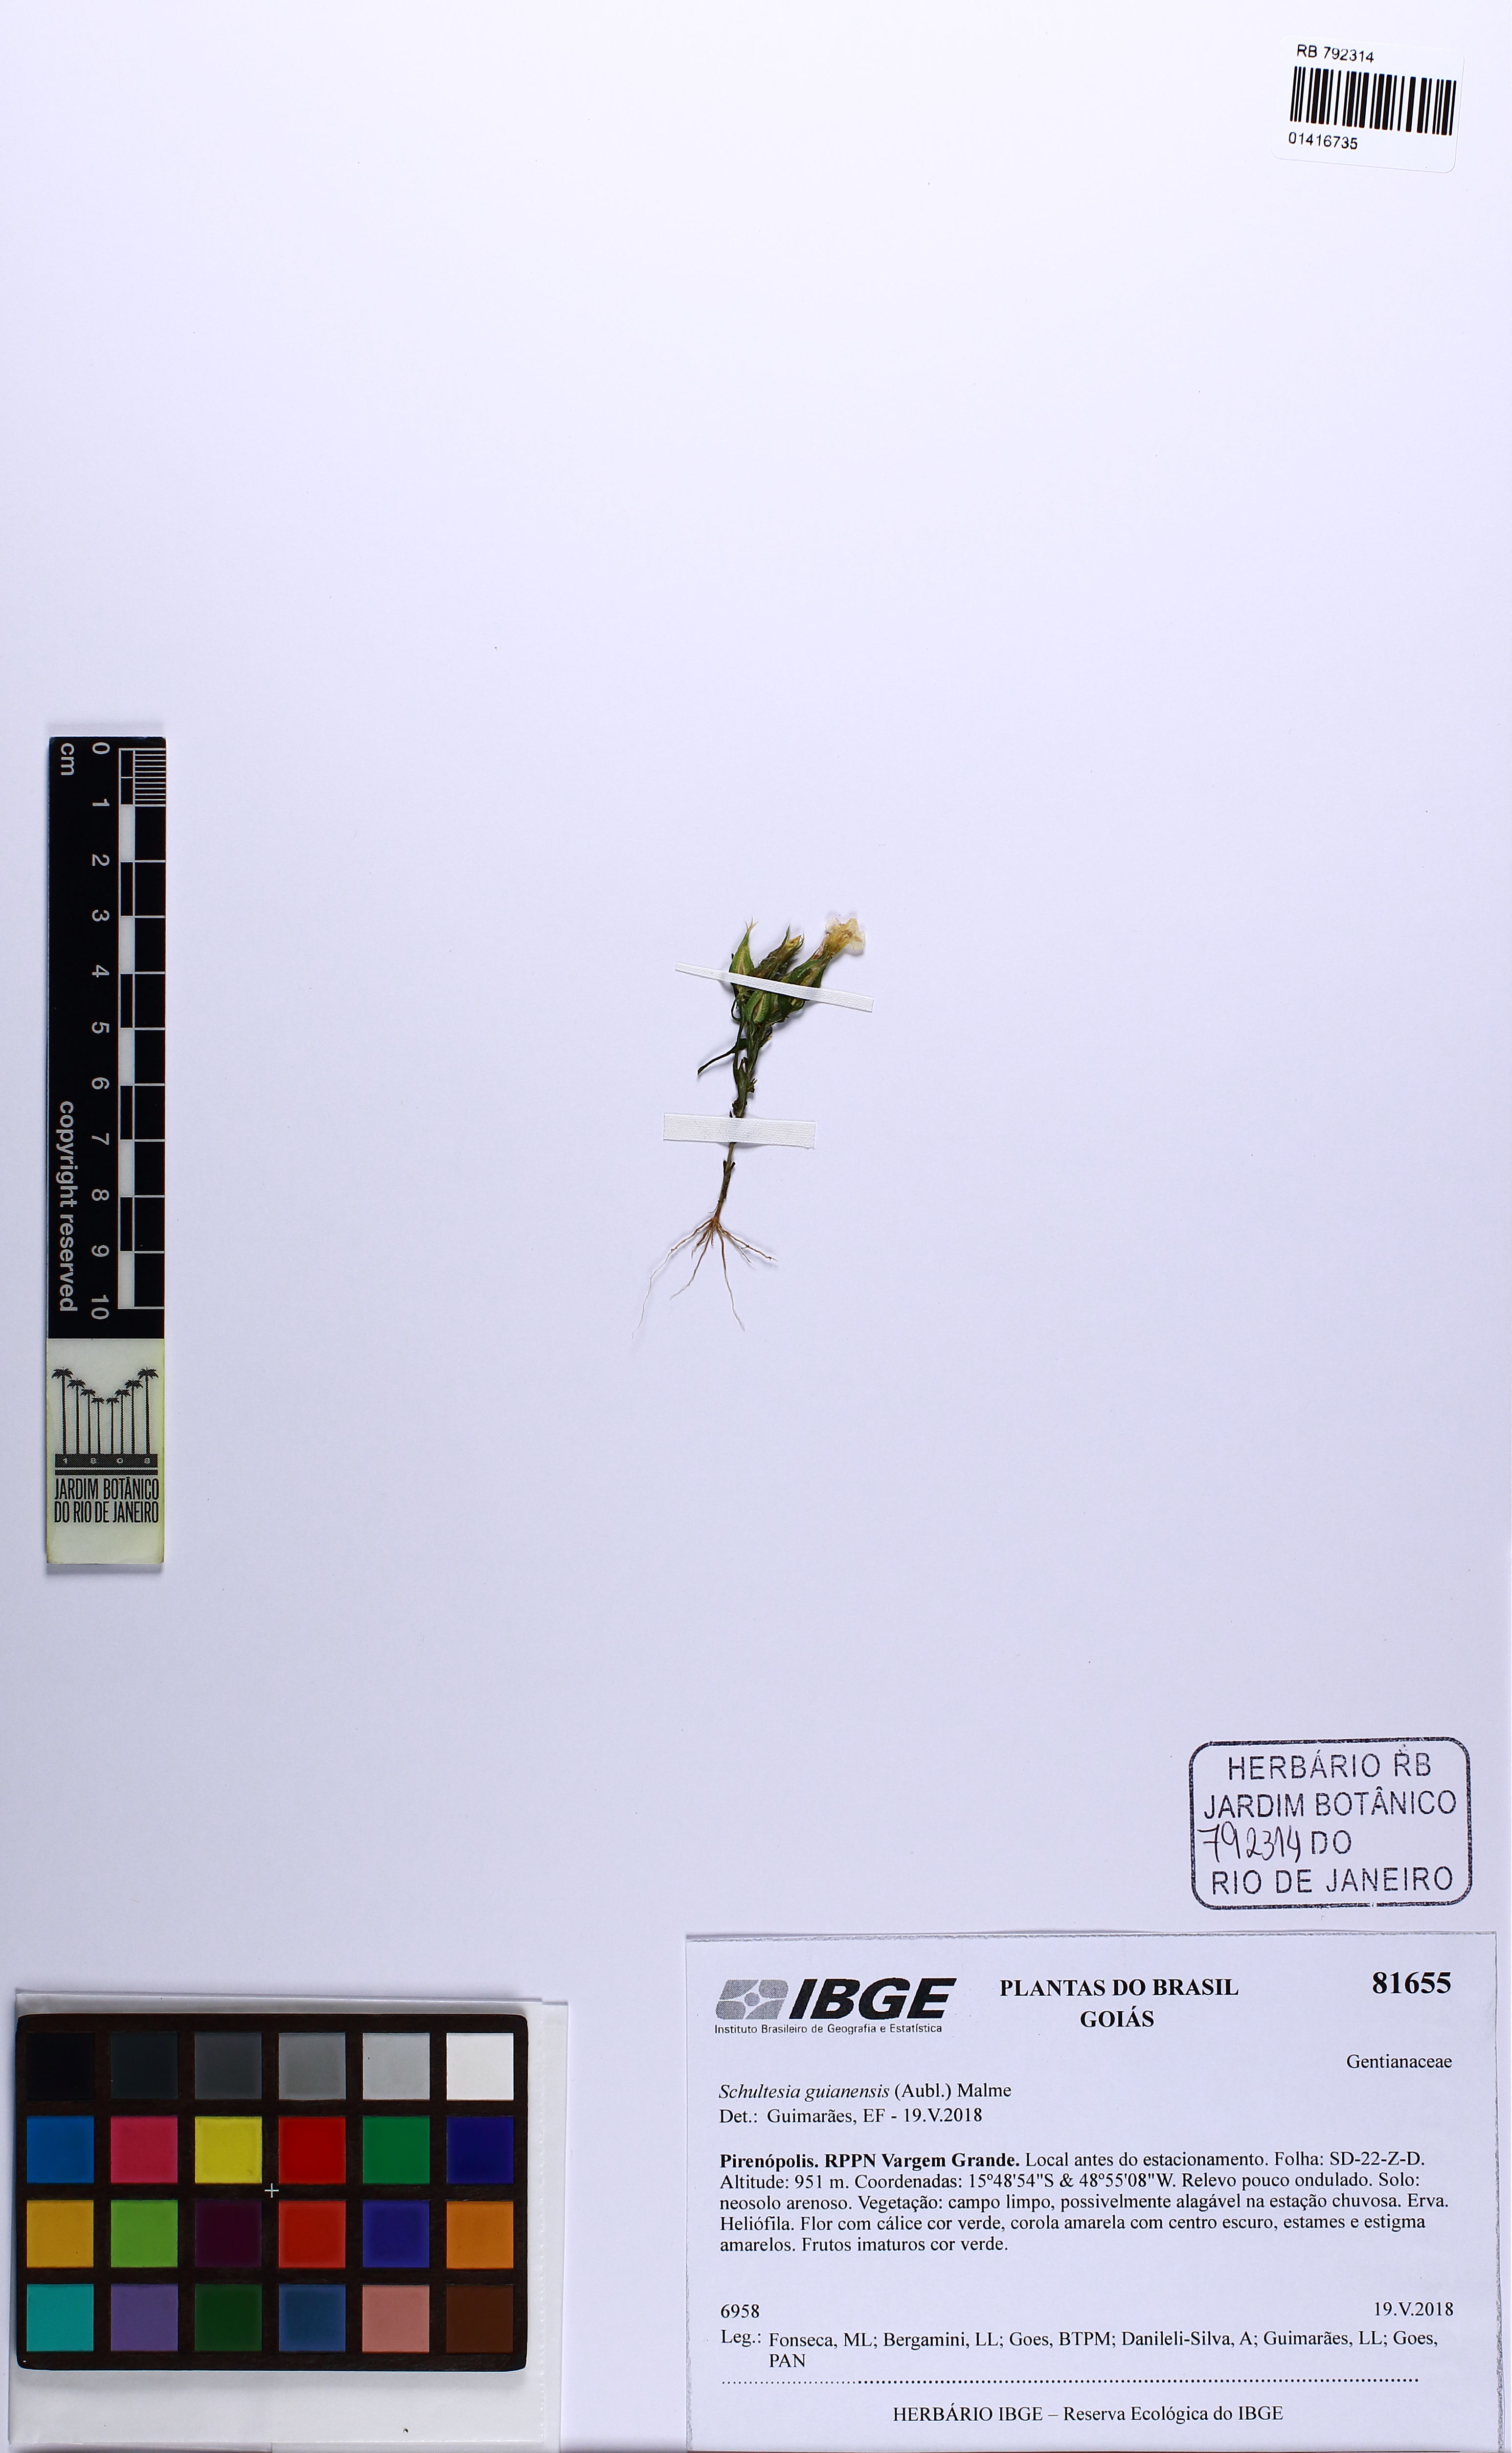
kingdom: Plantae
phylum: Tracheophyta
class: Magnoliopsida
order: Gentianales
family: Gentianaceae
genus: Schultesia
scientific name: Schultesia guianensis
